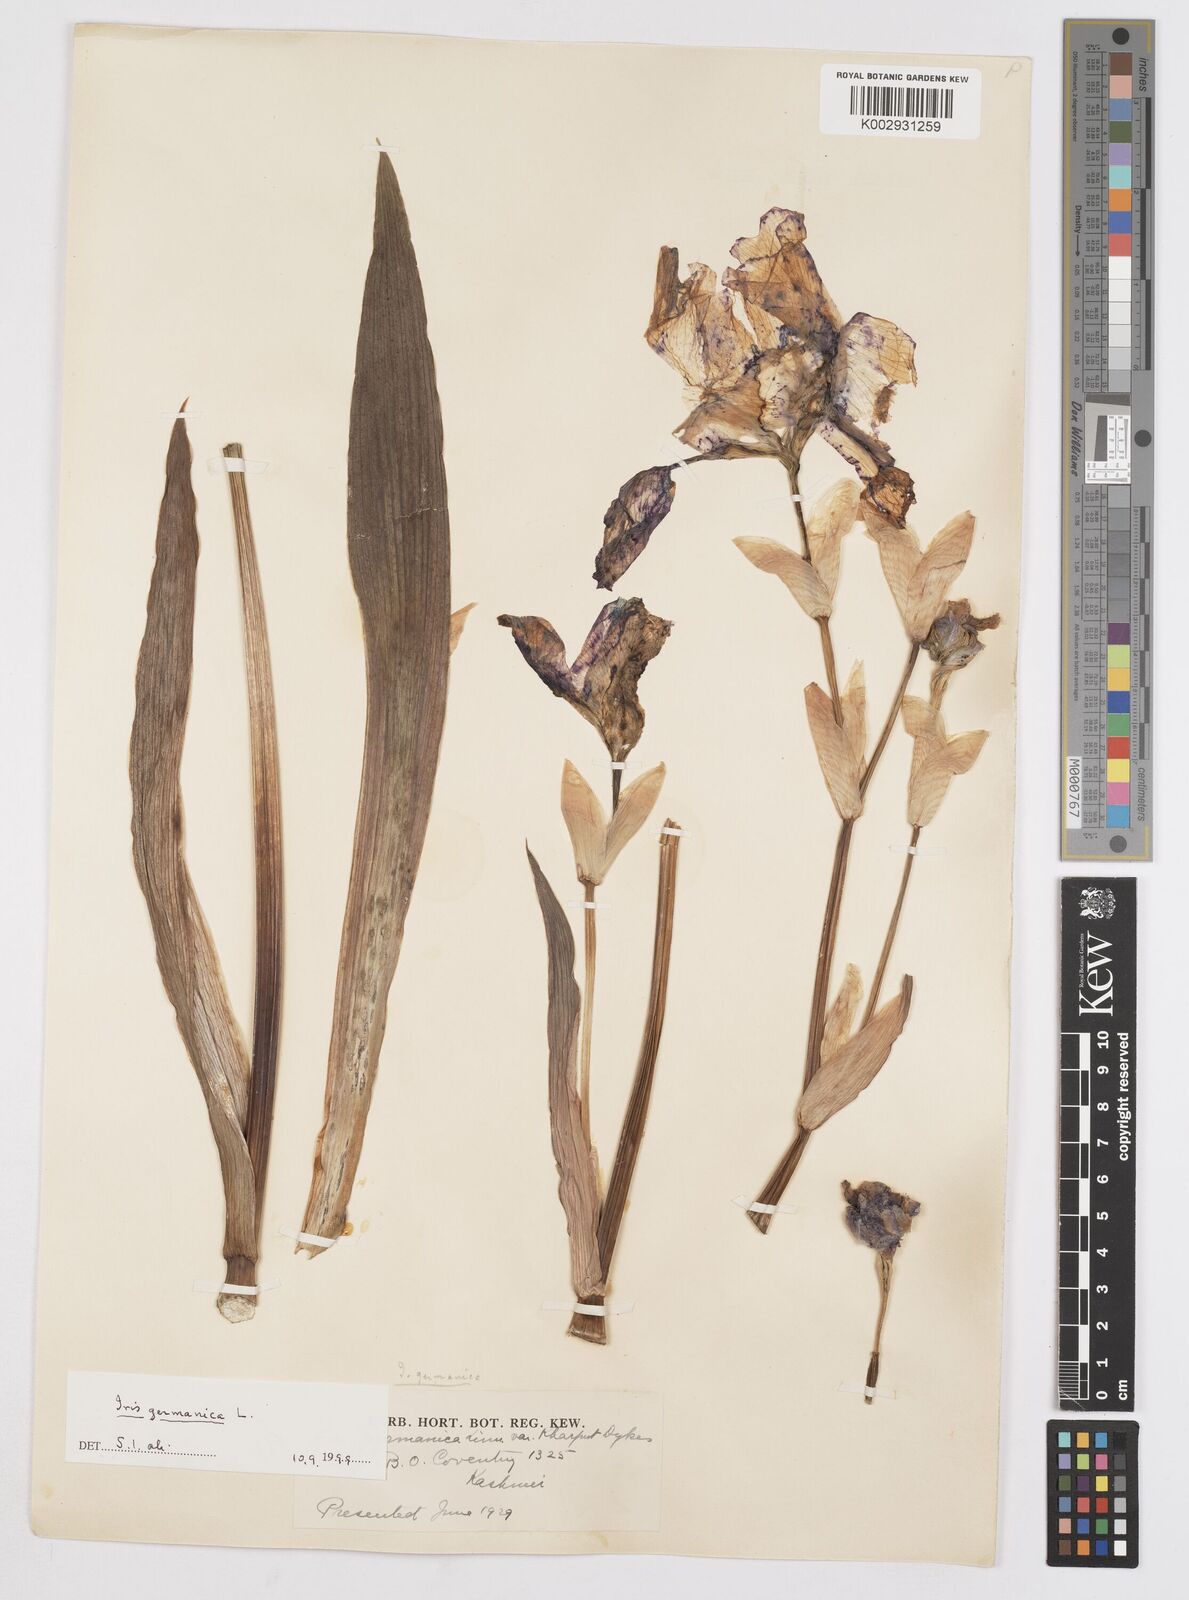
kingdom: Plantae
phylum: Tracheophyta
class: Liliopsida
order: Asparagales
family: Iridaceae
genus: Iris
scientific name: Iris germanica
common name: German iris
